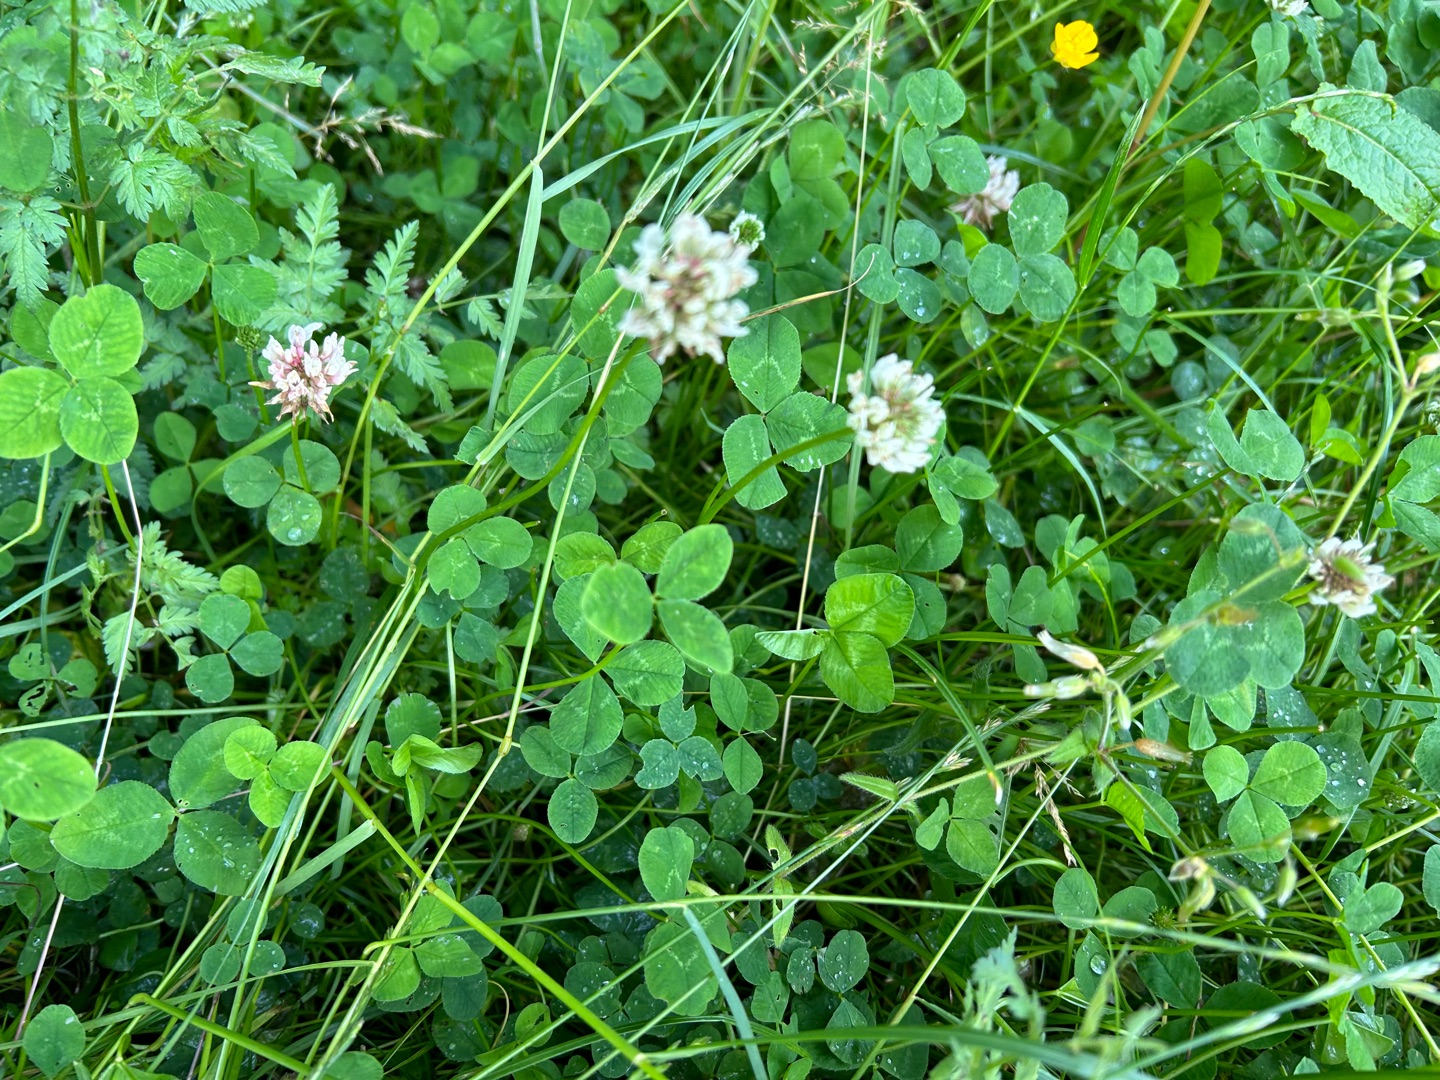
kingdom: Plantae
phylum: Tracheophyta
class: Magnoliopsida
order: Fabales
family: Fabaceae
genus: Trifolium
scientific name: Trifolium repens
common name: Hvid-kløver
